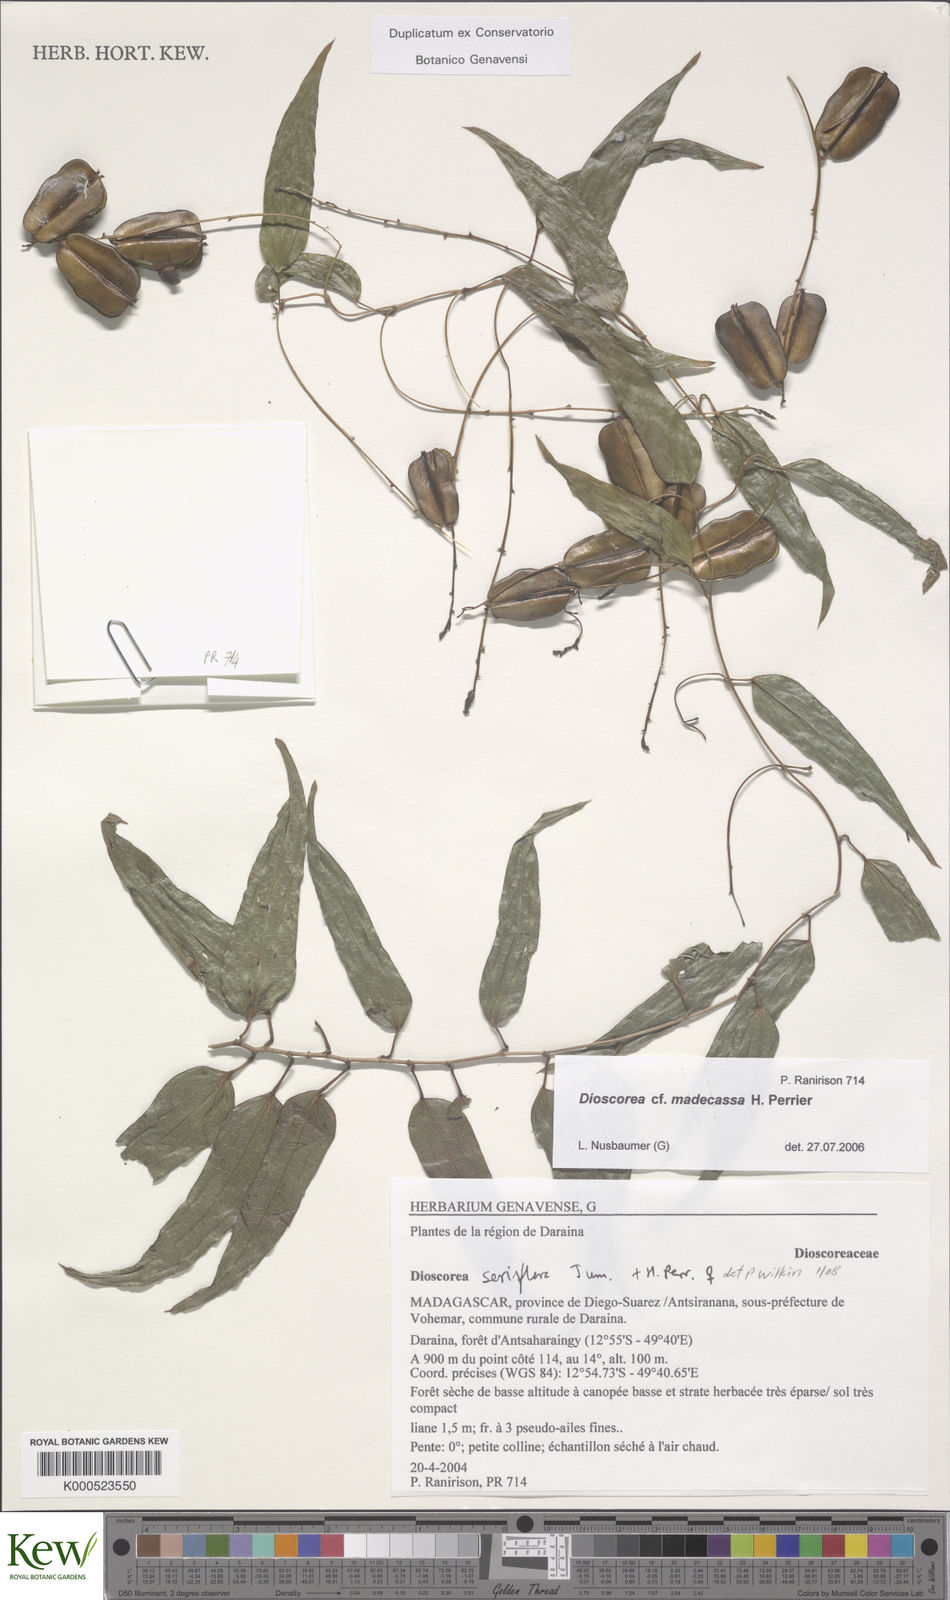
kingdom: Plantae
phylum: Tracheophyta
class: Liliopsida
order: Dioscoreales
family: Dioscoreaceae
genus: Dioscorea
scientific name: Dioscorea seriflora
